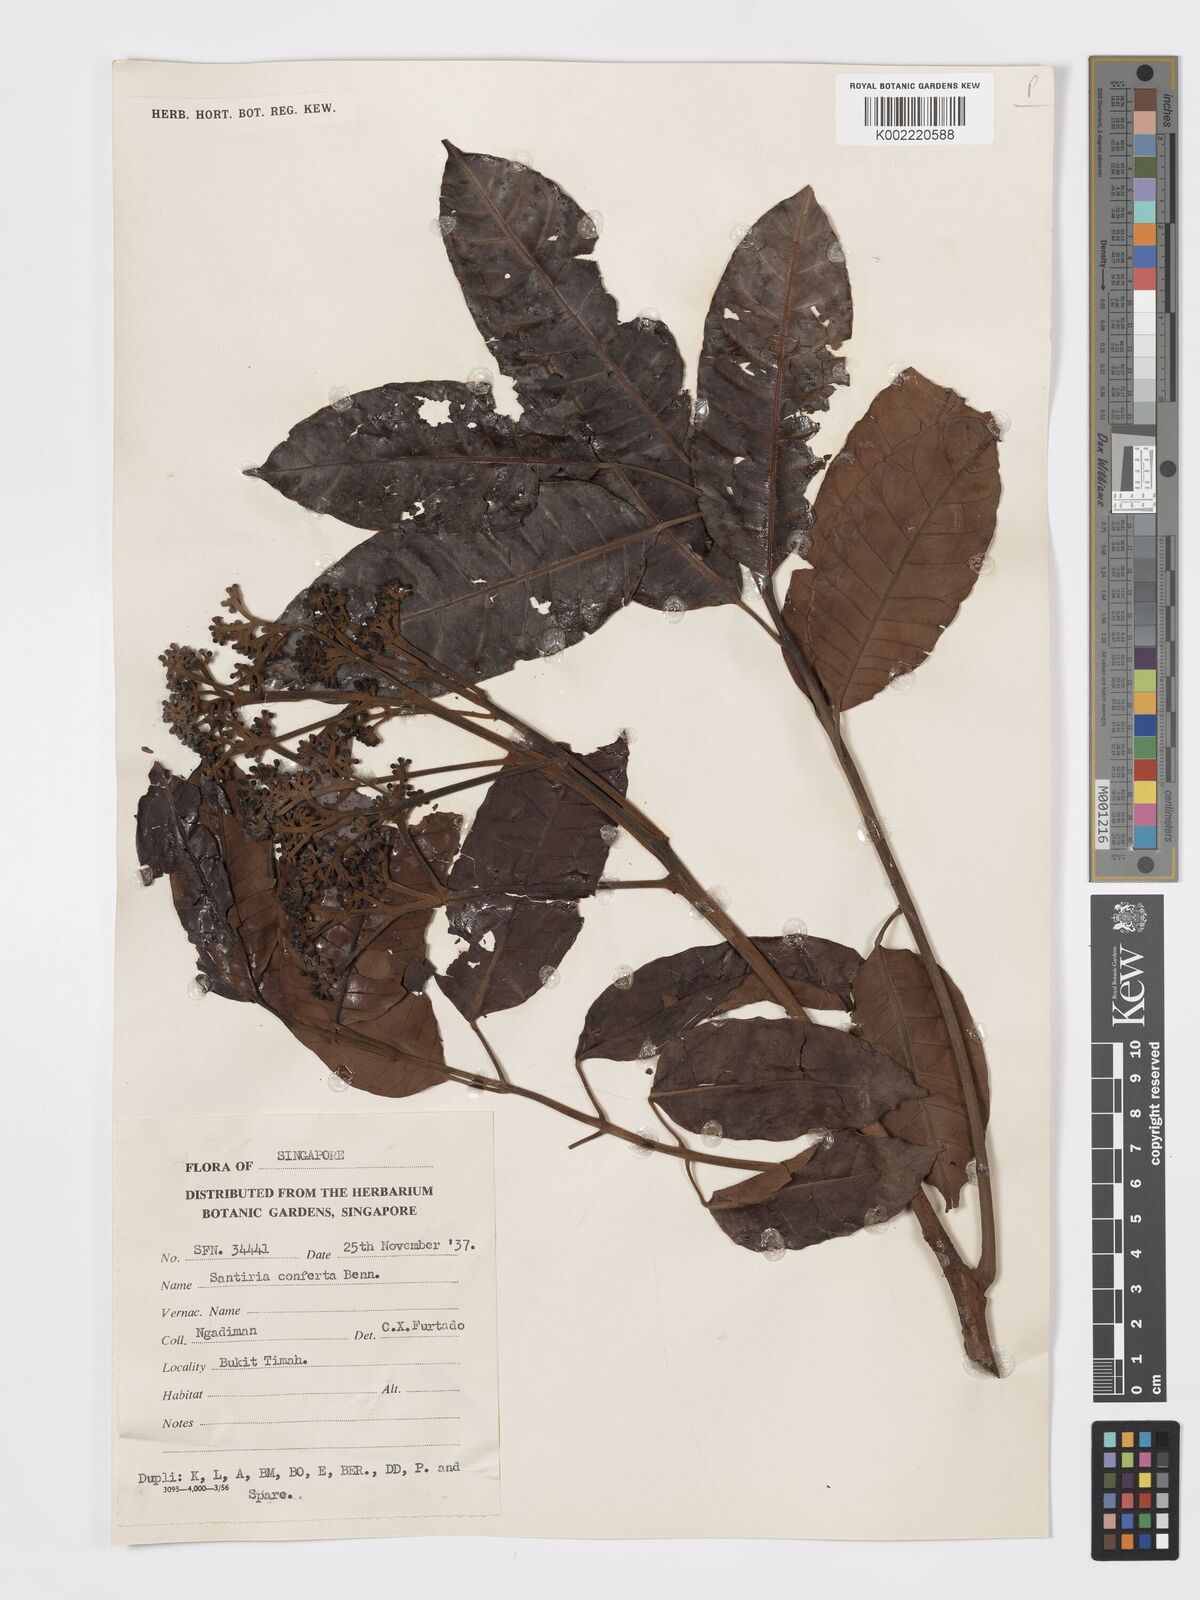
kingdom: Plantae
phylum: Tracheophyta
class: Magnoliopsida
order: Sapindales
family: Burseraceae
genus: Santiria
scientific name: Santiria conferta
